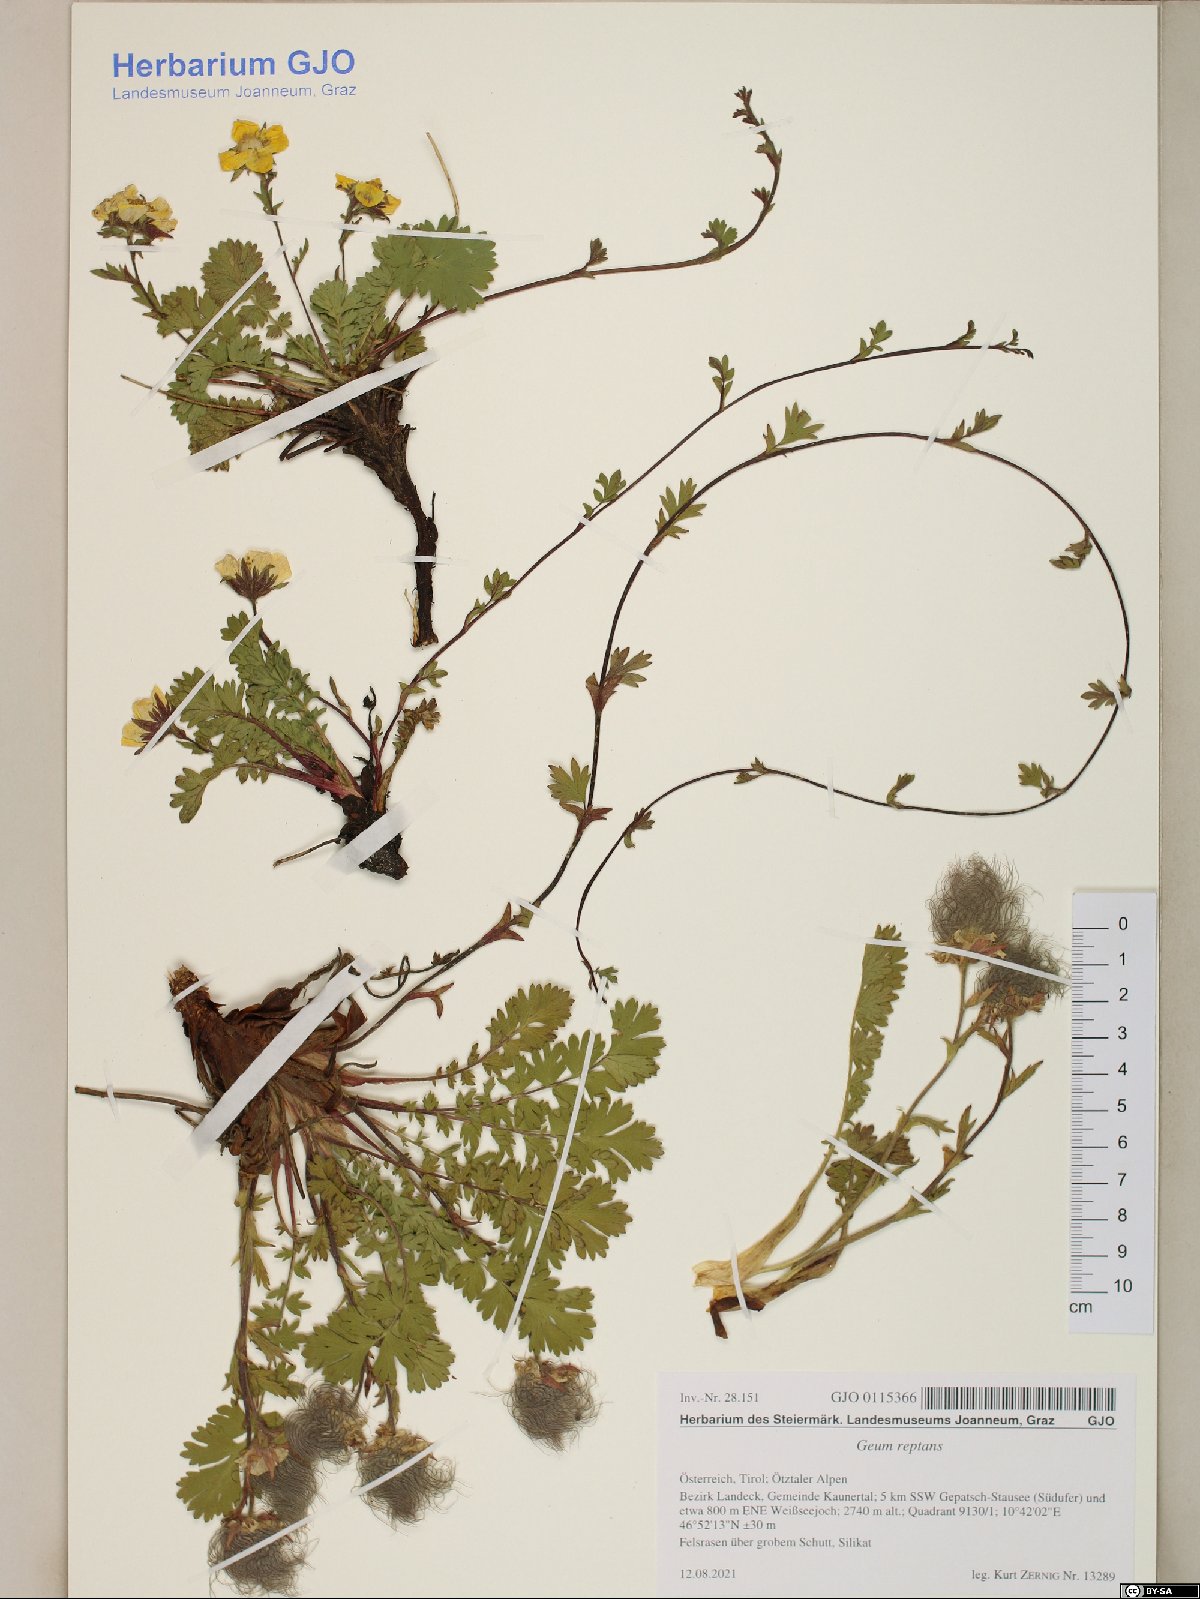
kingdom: Plantae
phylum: Tracheophyta
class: Magnoliopsida
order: Rosales
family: Rosaceae
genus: Geum
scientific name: Geum reptans
